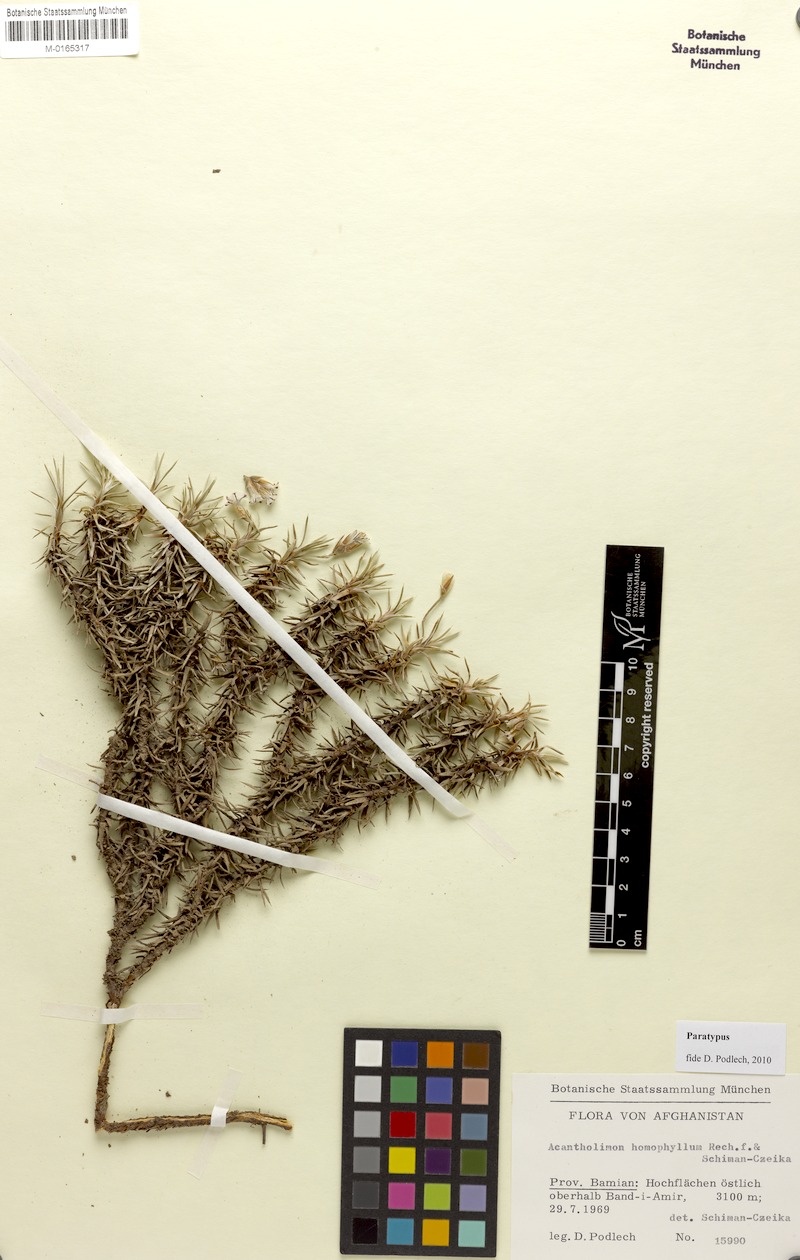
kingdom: Plantae
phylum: Tracheophyta
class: Magnoliopsida
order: Caryophyllales
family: Plumbaginaceae
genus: Acantholimon
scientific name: Acantholimon homophyllum
